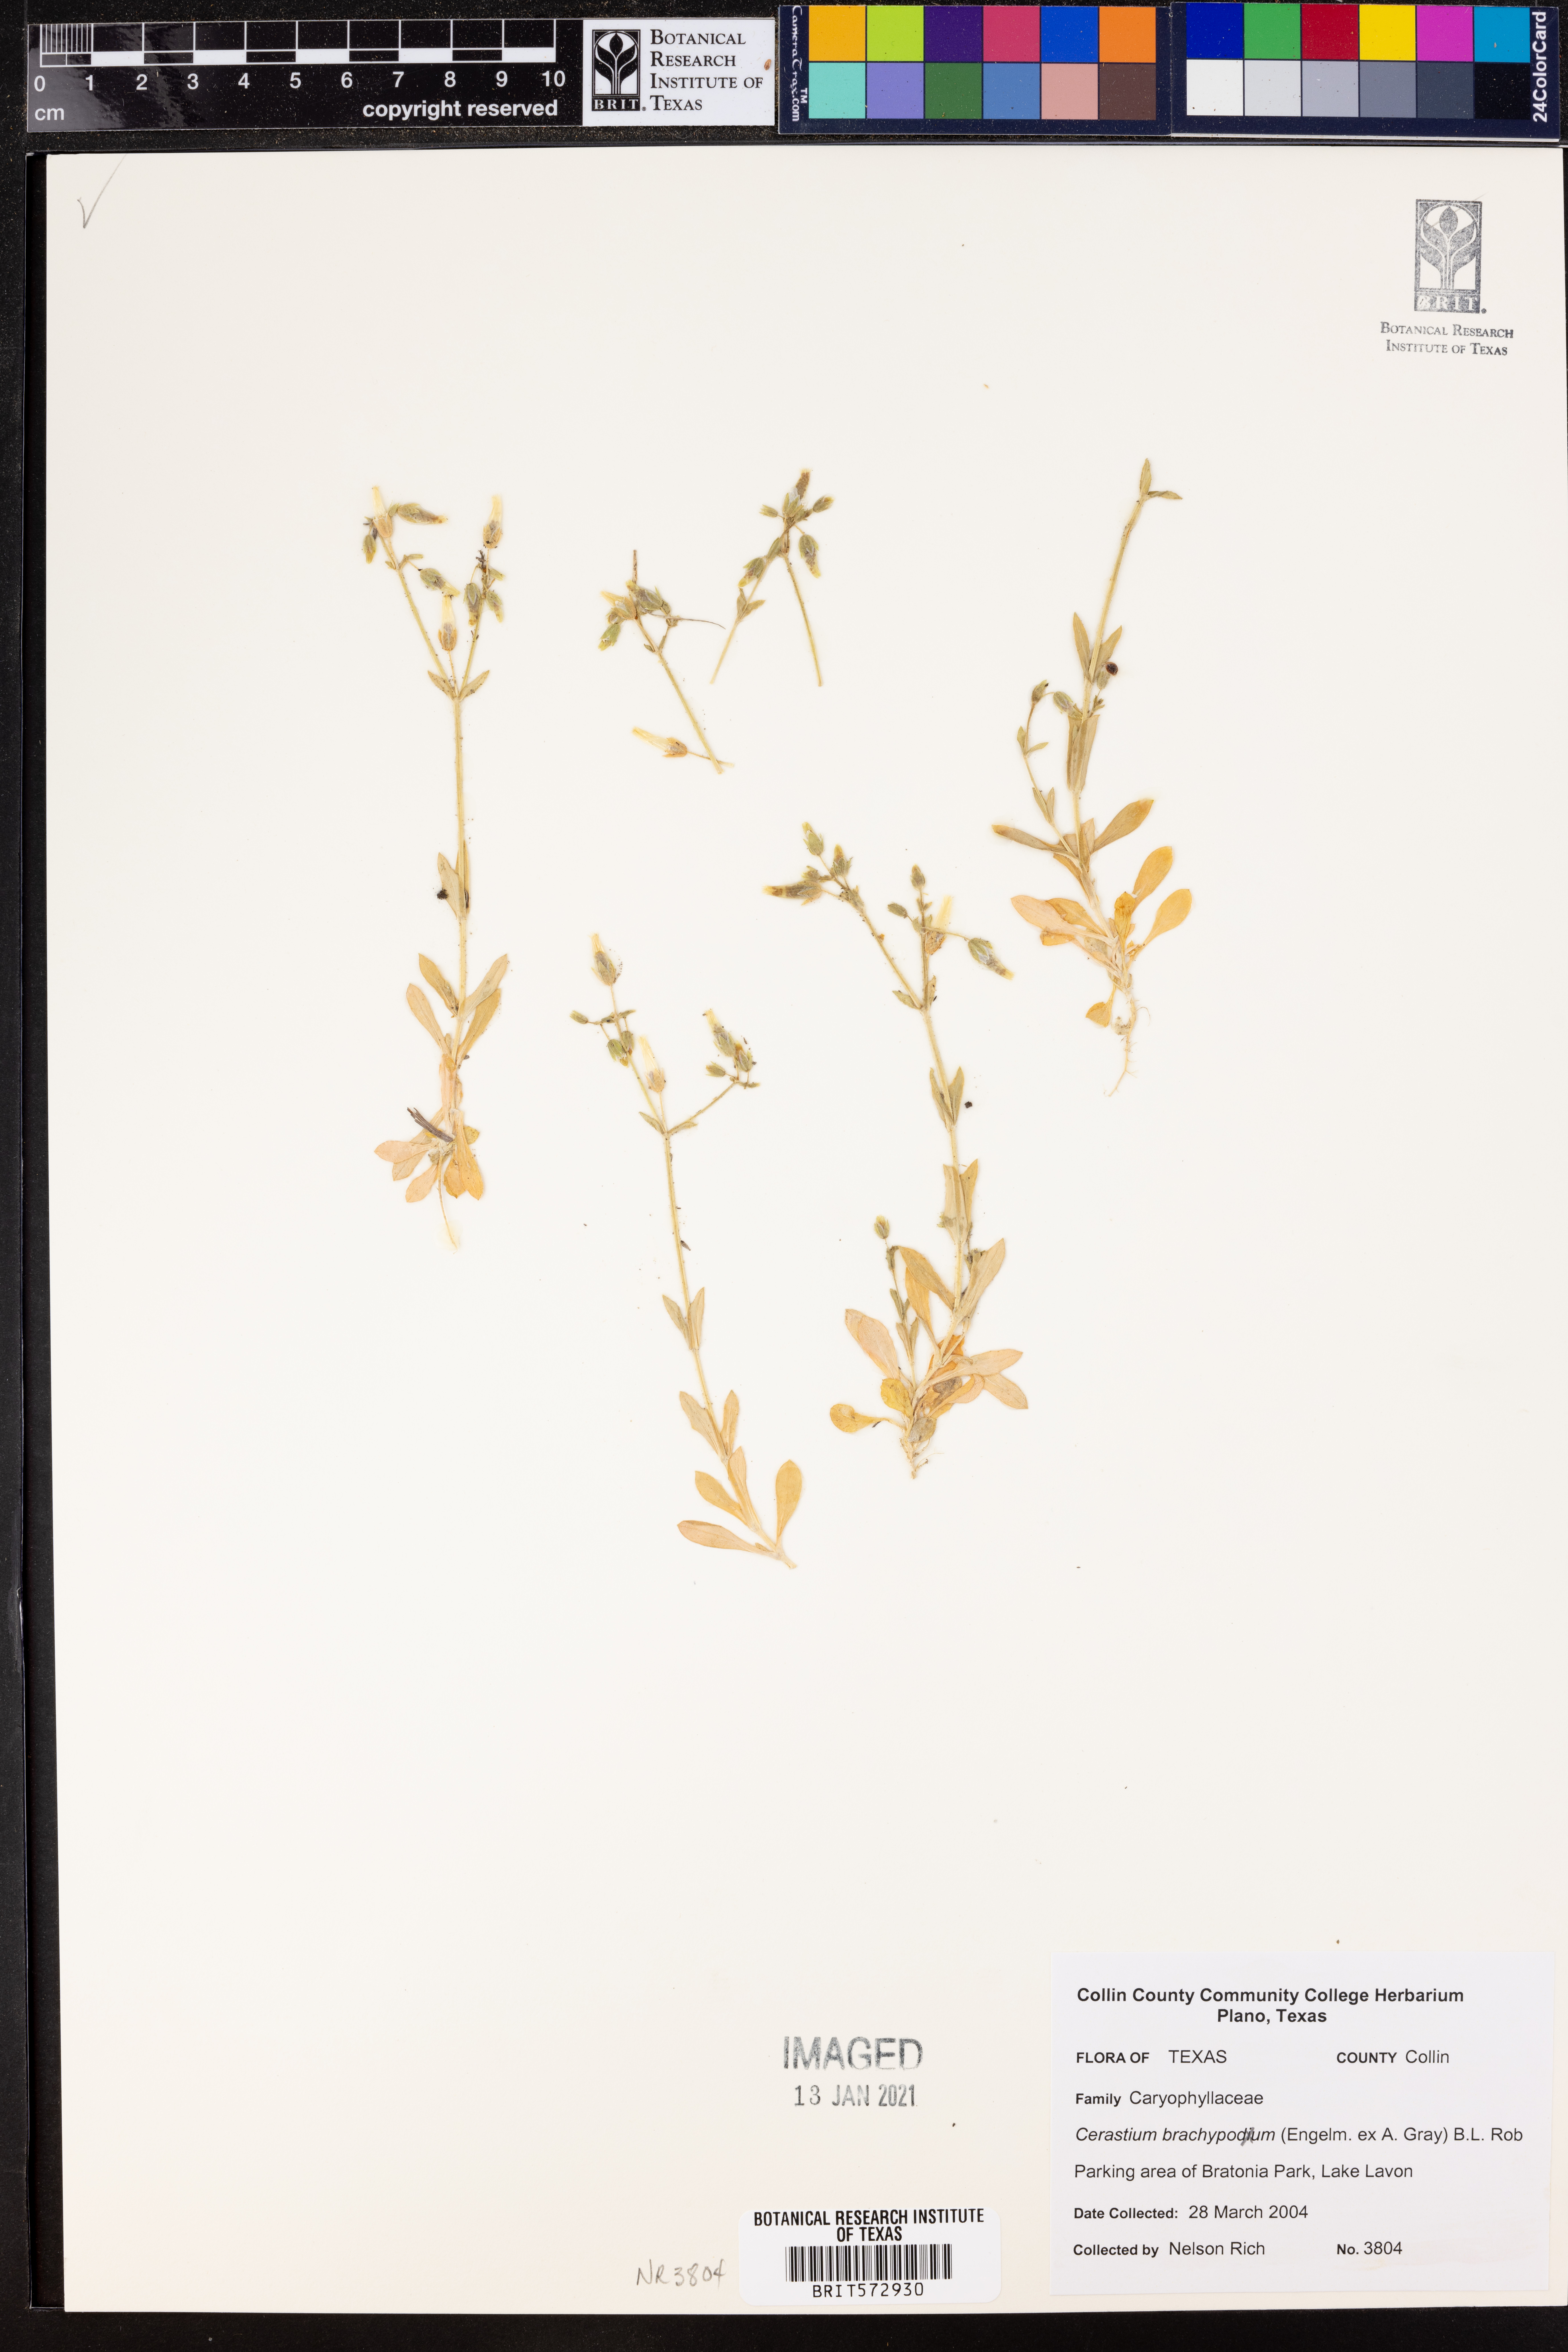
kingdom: Plantae
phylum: Tracheophyta
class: Magnoliopsida
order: Caryophyllales
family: Caryophyllaceae
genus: Cerastium
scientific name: Cerastium brachypodum
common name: Short-pedicelled nodding chickweed
